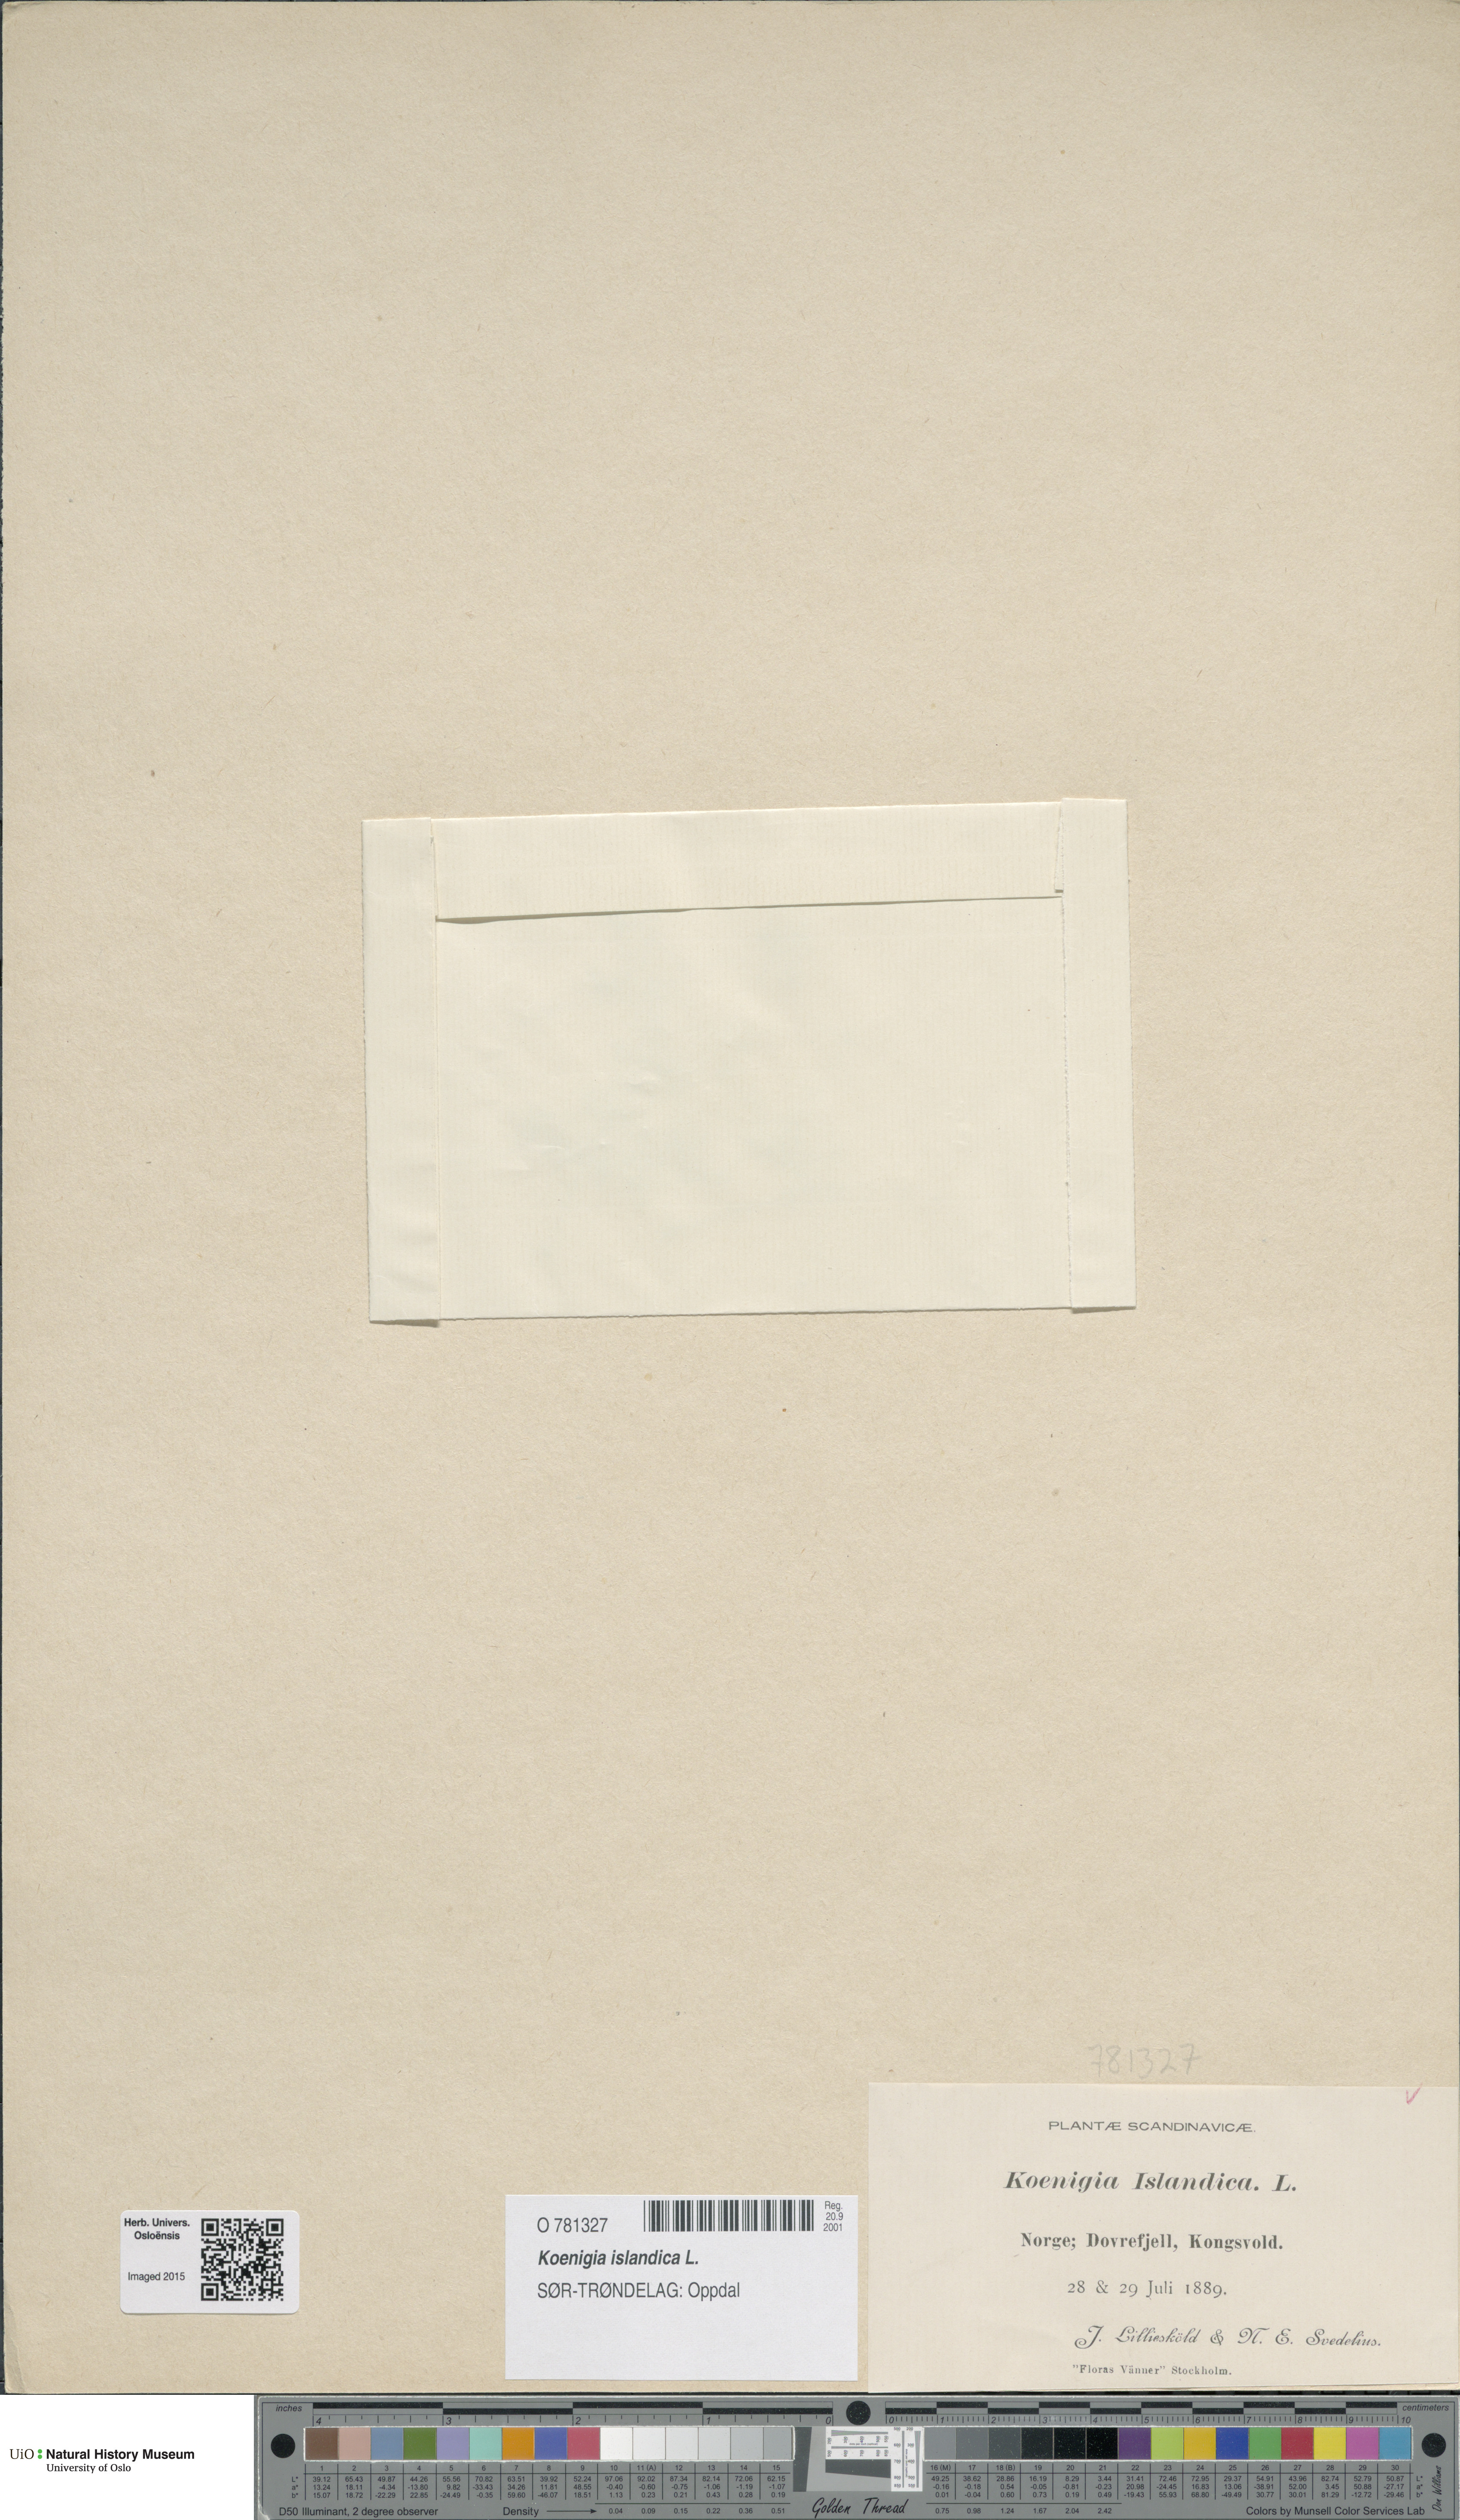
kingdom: Plantae
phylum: Tracheophyta
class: Magnoliopsida
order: Caryophyllales
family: Polygonaceae
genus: Koenigia
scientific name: Koenigia islandica
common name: Iceland-purslane
